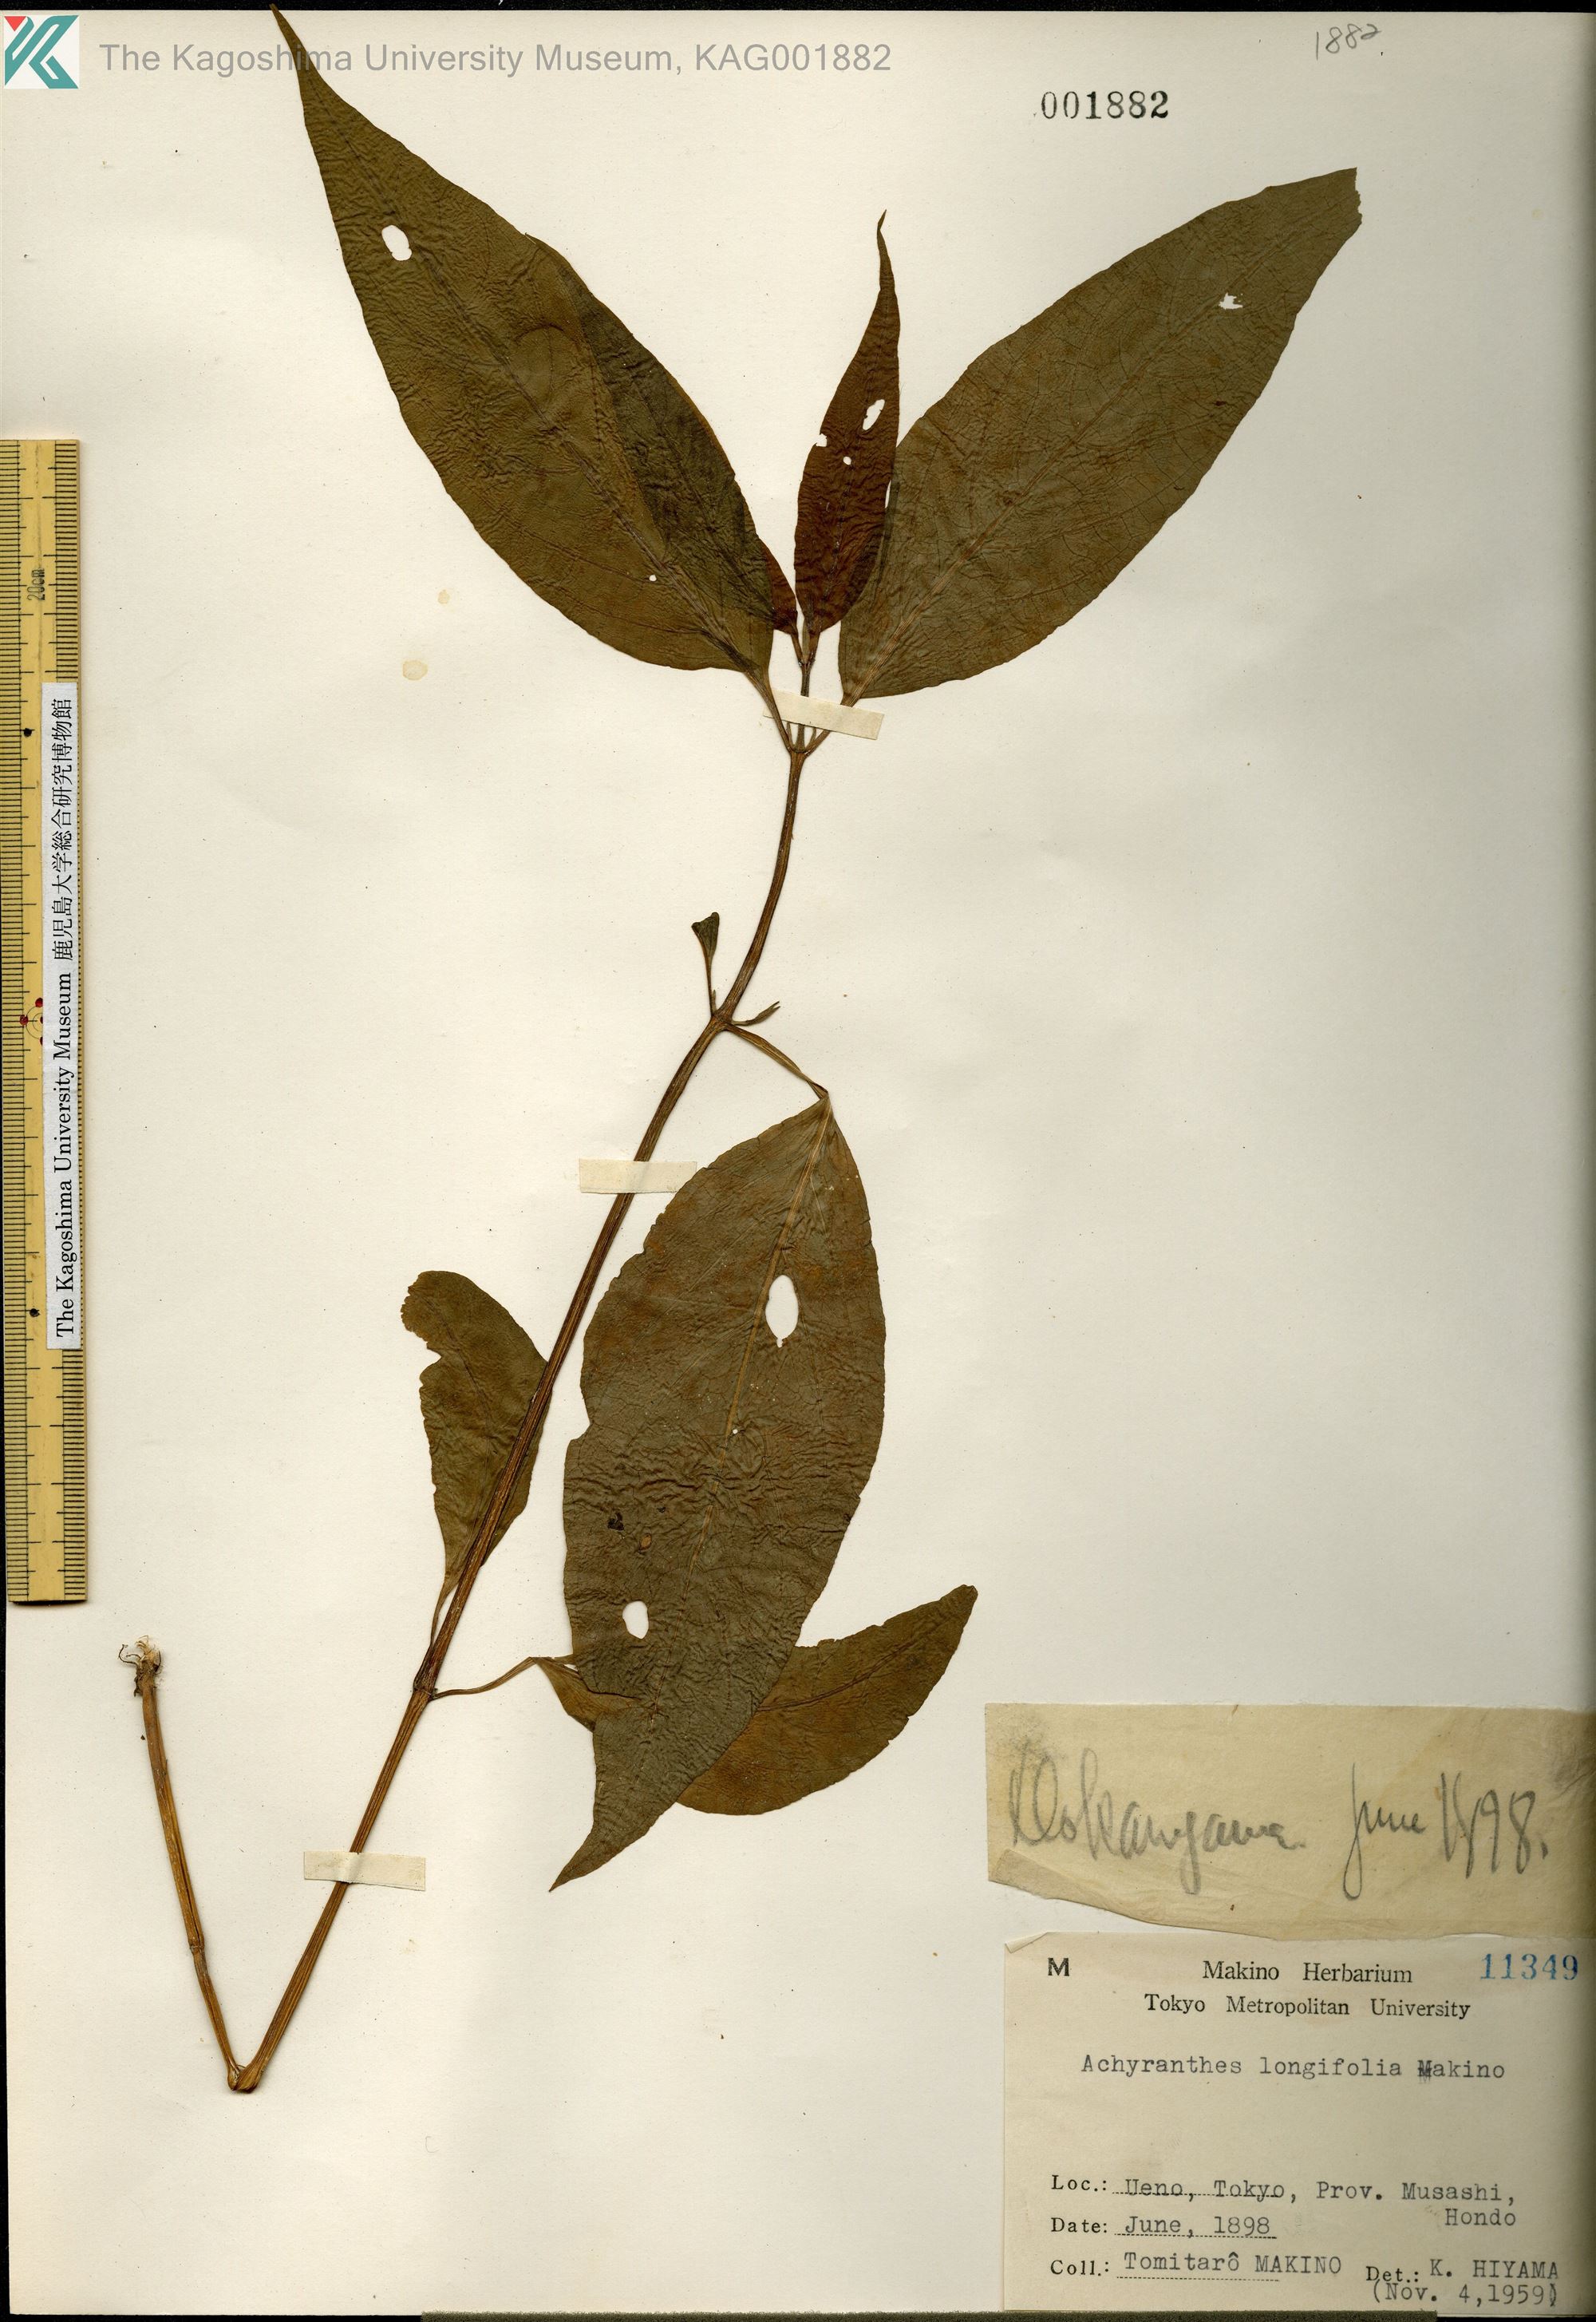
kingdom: Plantae
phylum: Tracheophyta
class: Magnoliopsida
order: Caryophyllales
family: Amaranthaceae
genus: Achyranthes
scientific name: Achyranthes bidentata
